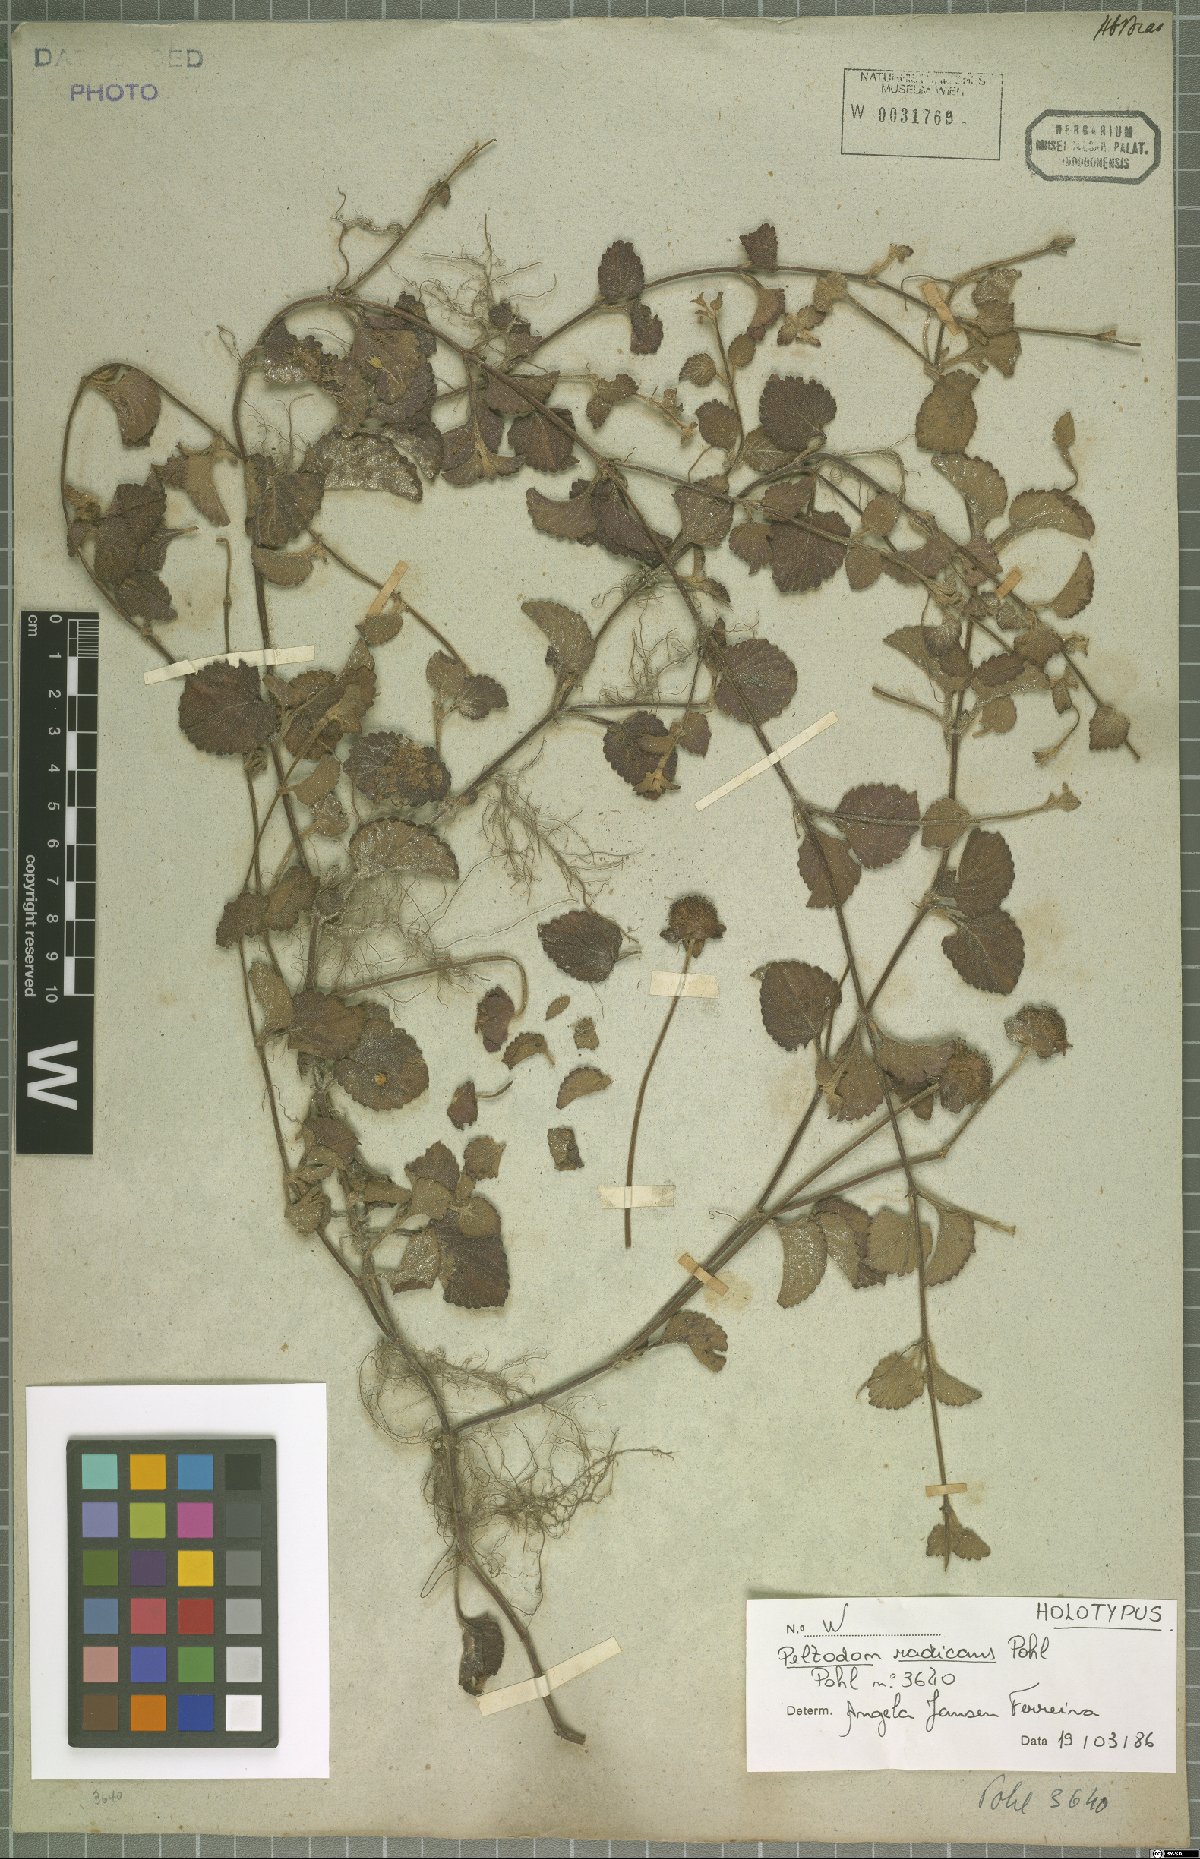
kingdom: Plantae
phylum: Tracheophyta
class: Magnoliopsida
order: Lamiales
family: Lamiaceae
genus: Hyptis
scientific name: Hyptis radicans
